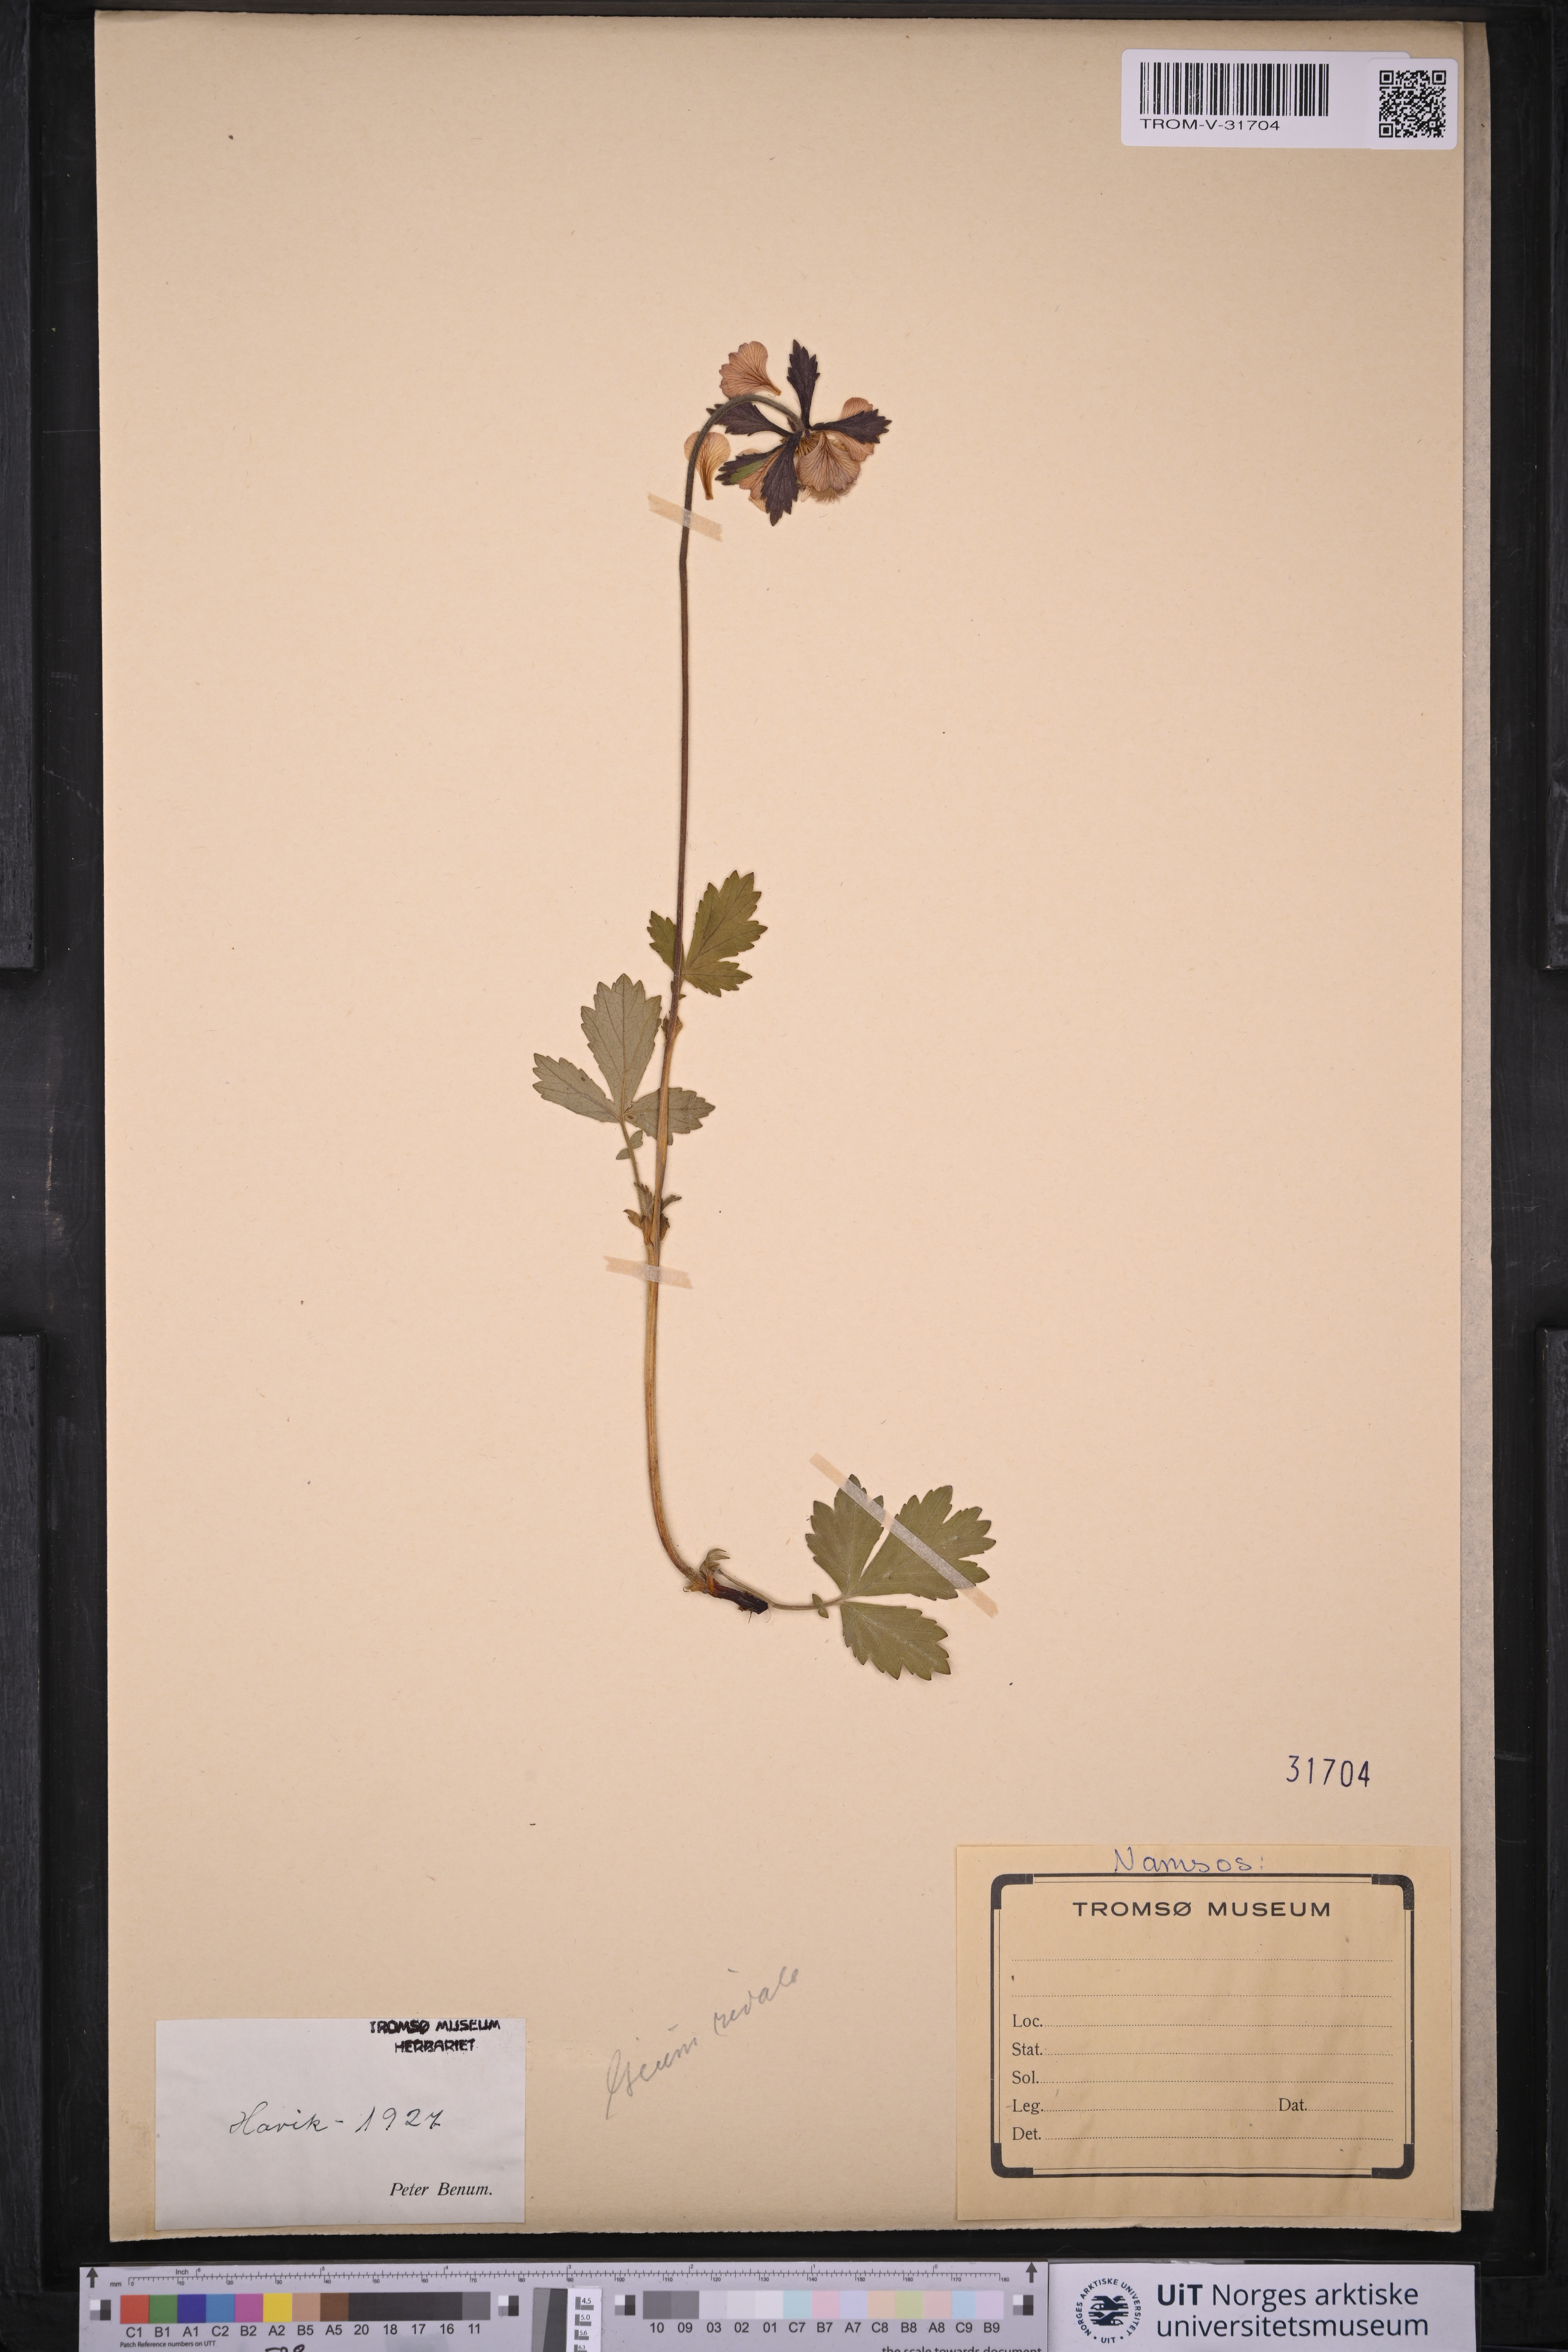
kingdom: Plantae
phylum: Tracheophyta
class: Magnoliopsida
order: Rosales
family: Rosaceae
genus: Geum
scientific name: Geum rivale
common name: Water avens
